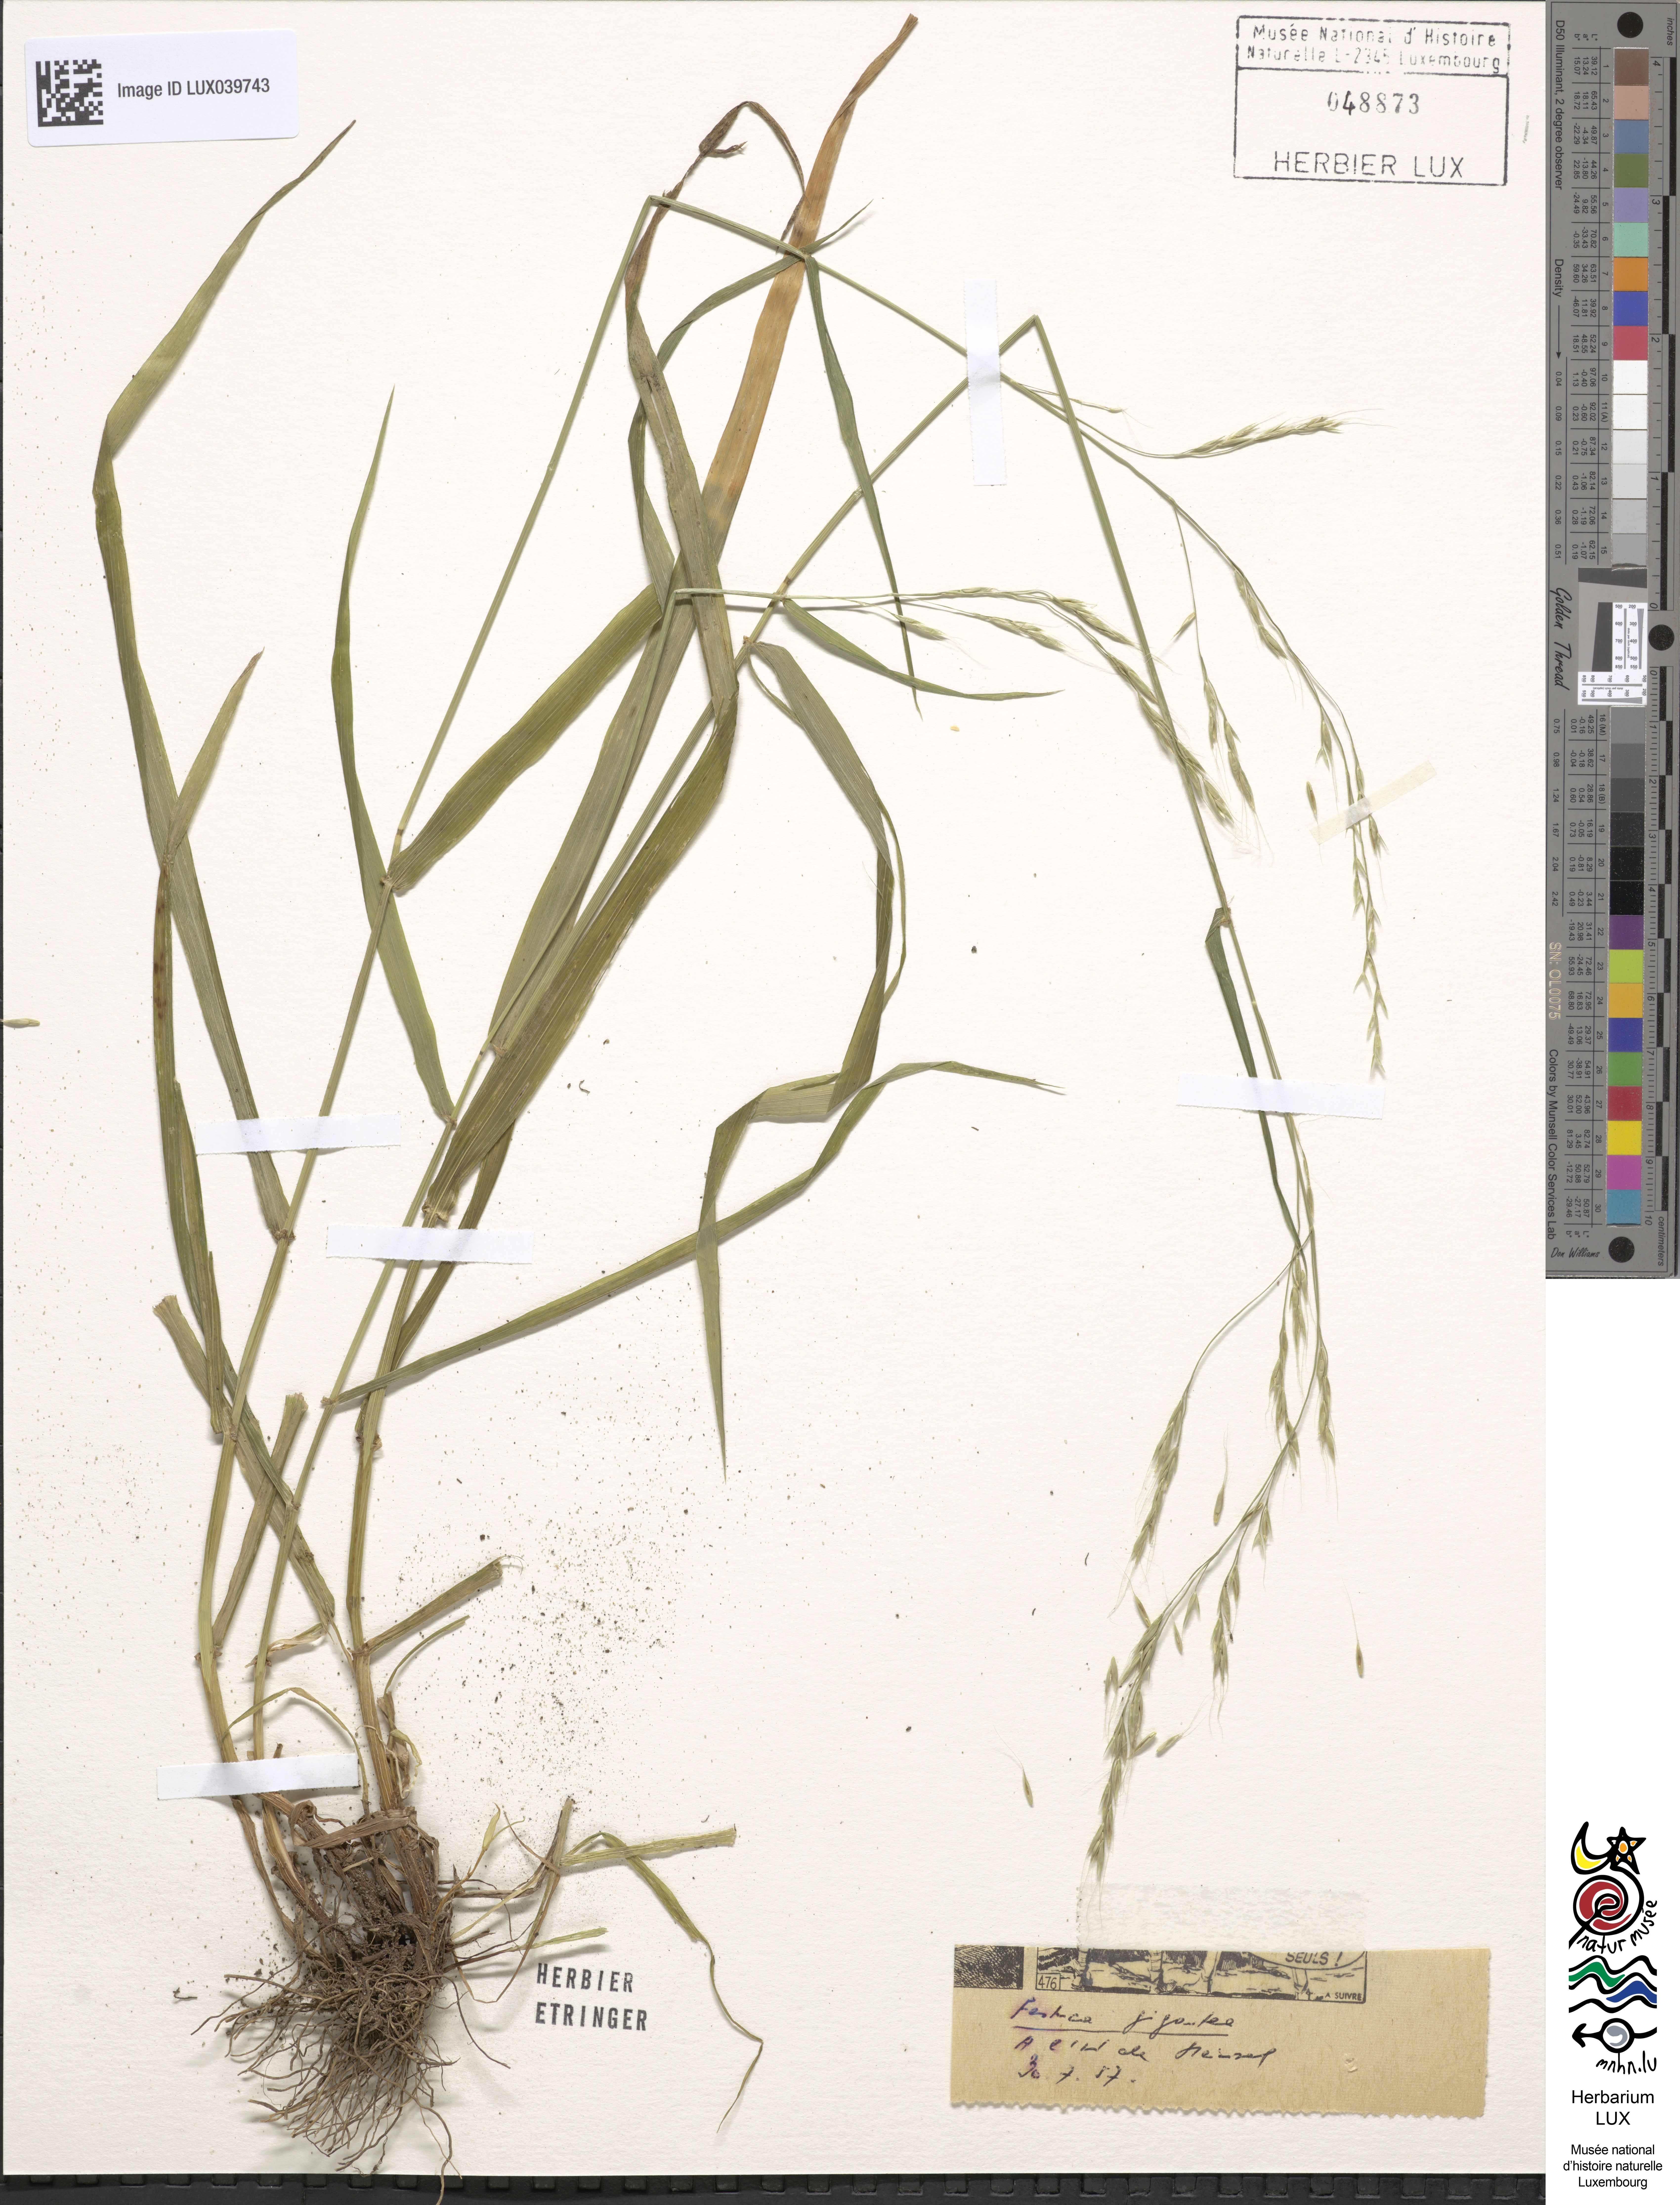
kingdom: Plantae
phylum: Tracheophyta
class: Liliopsida
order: Poales
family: Poaceae
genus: Lolium
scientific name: Lolium giganteum
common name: Giant fescue
